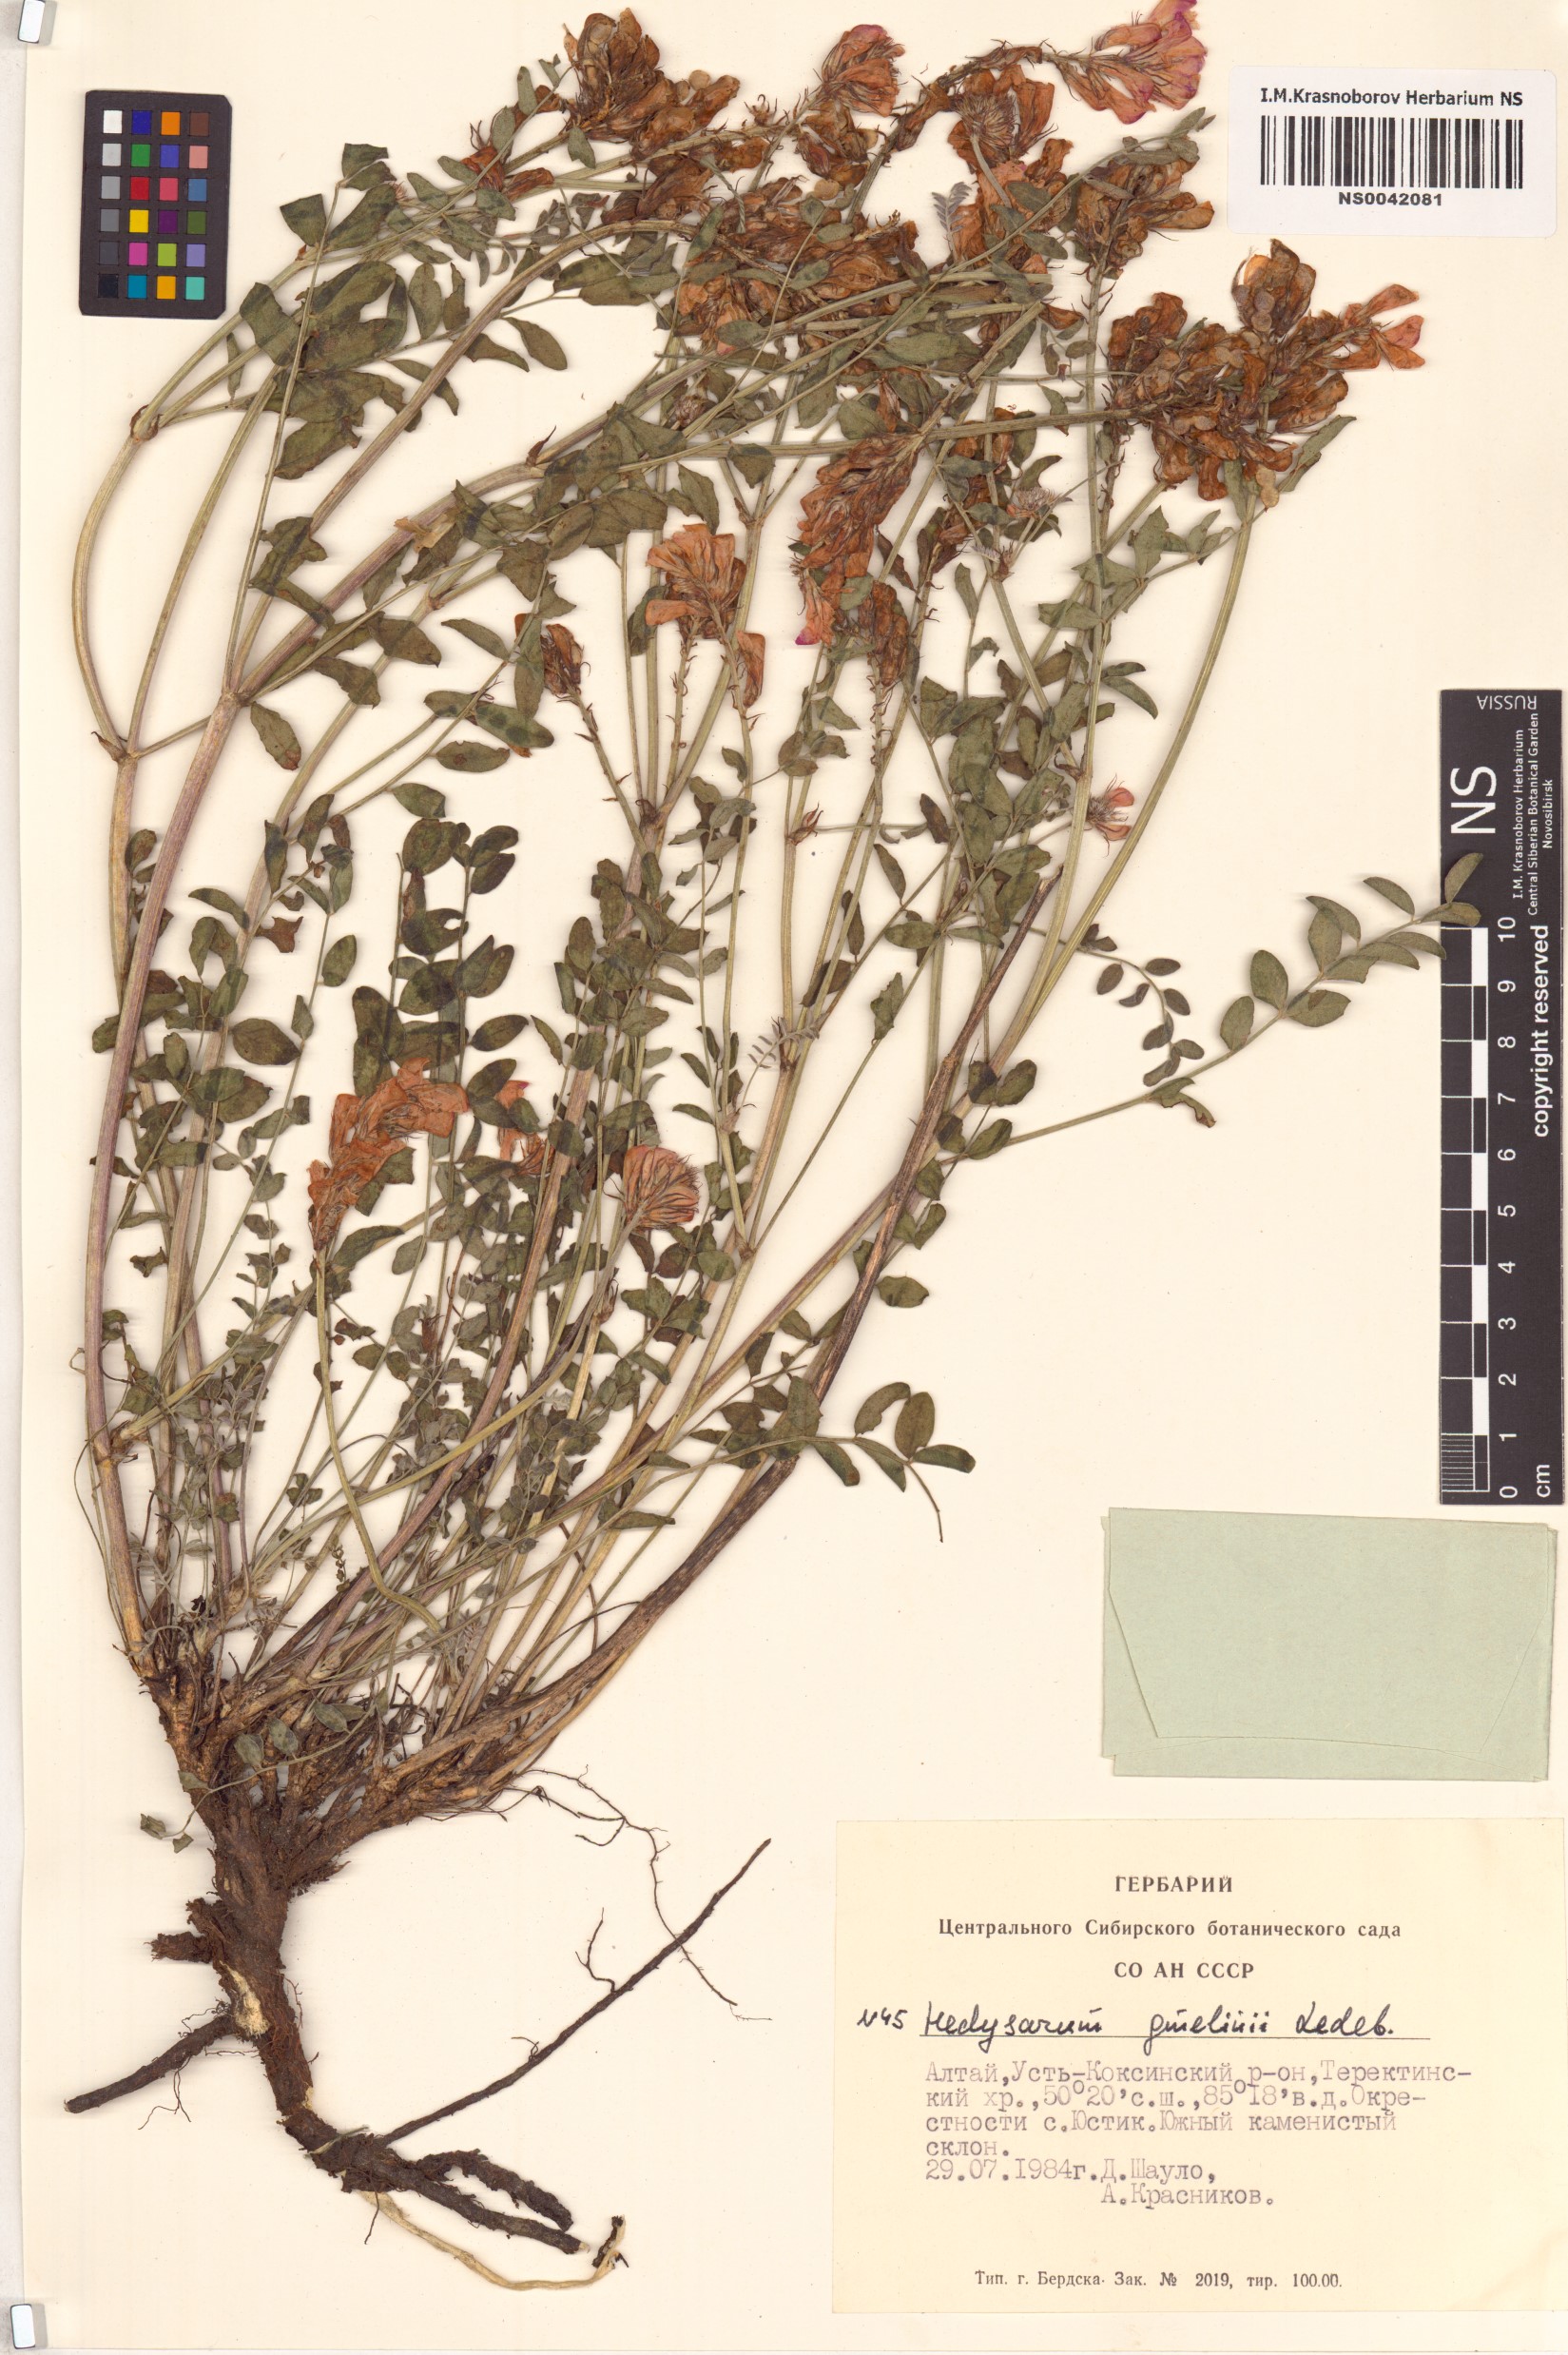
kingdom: Plantae
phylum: Tracheophyta
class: Magnoliopsida
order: Fabales
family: Fabaceae
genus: Hedysarum
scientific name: Hedysarum gmelinii
